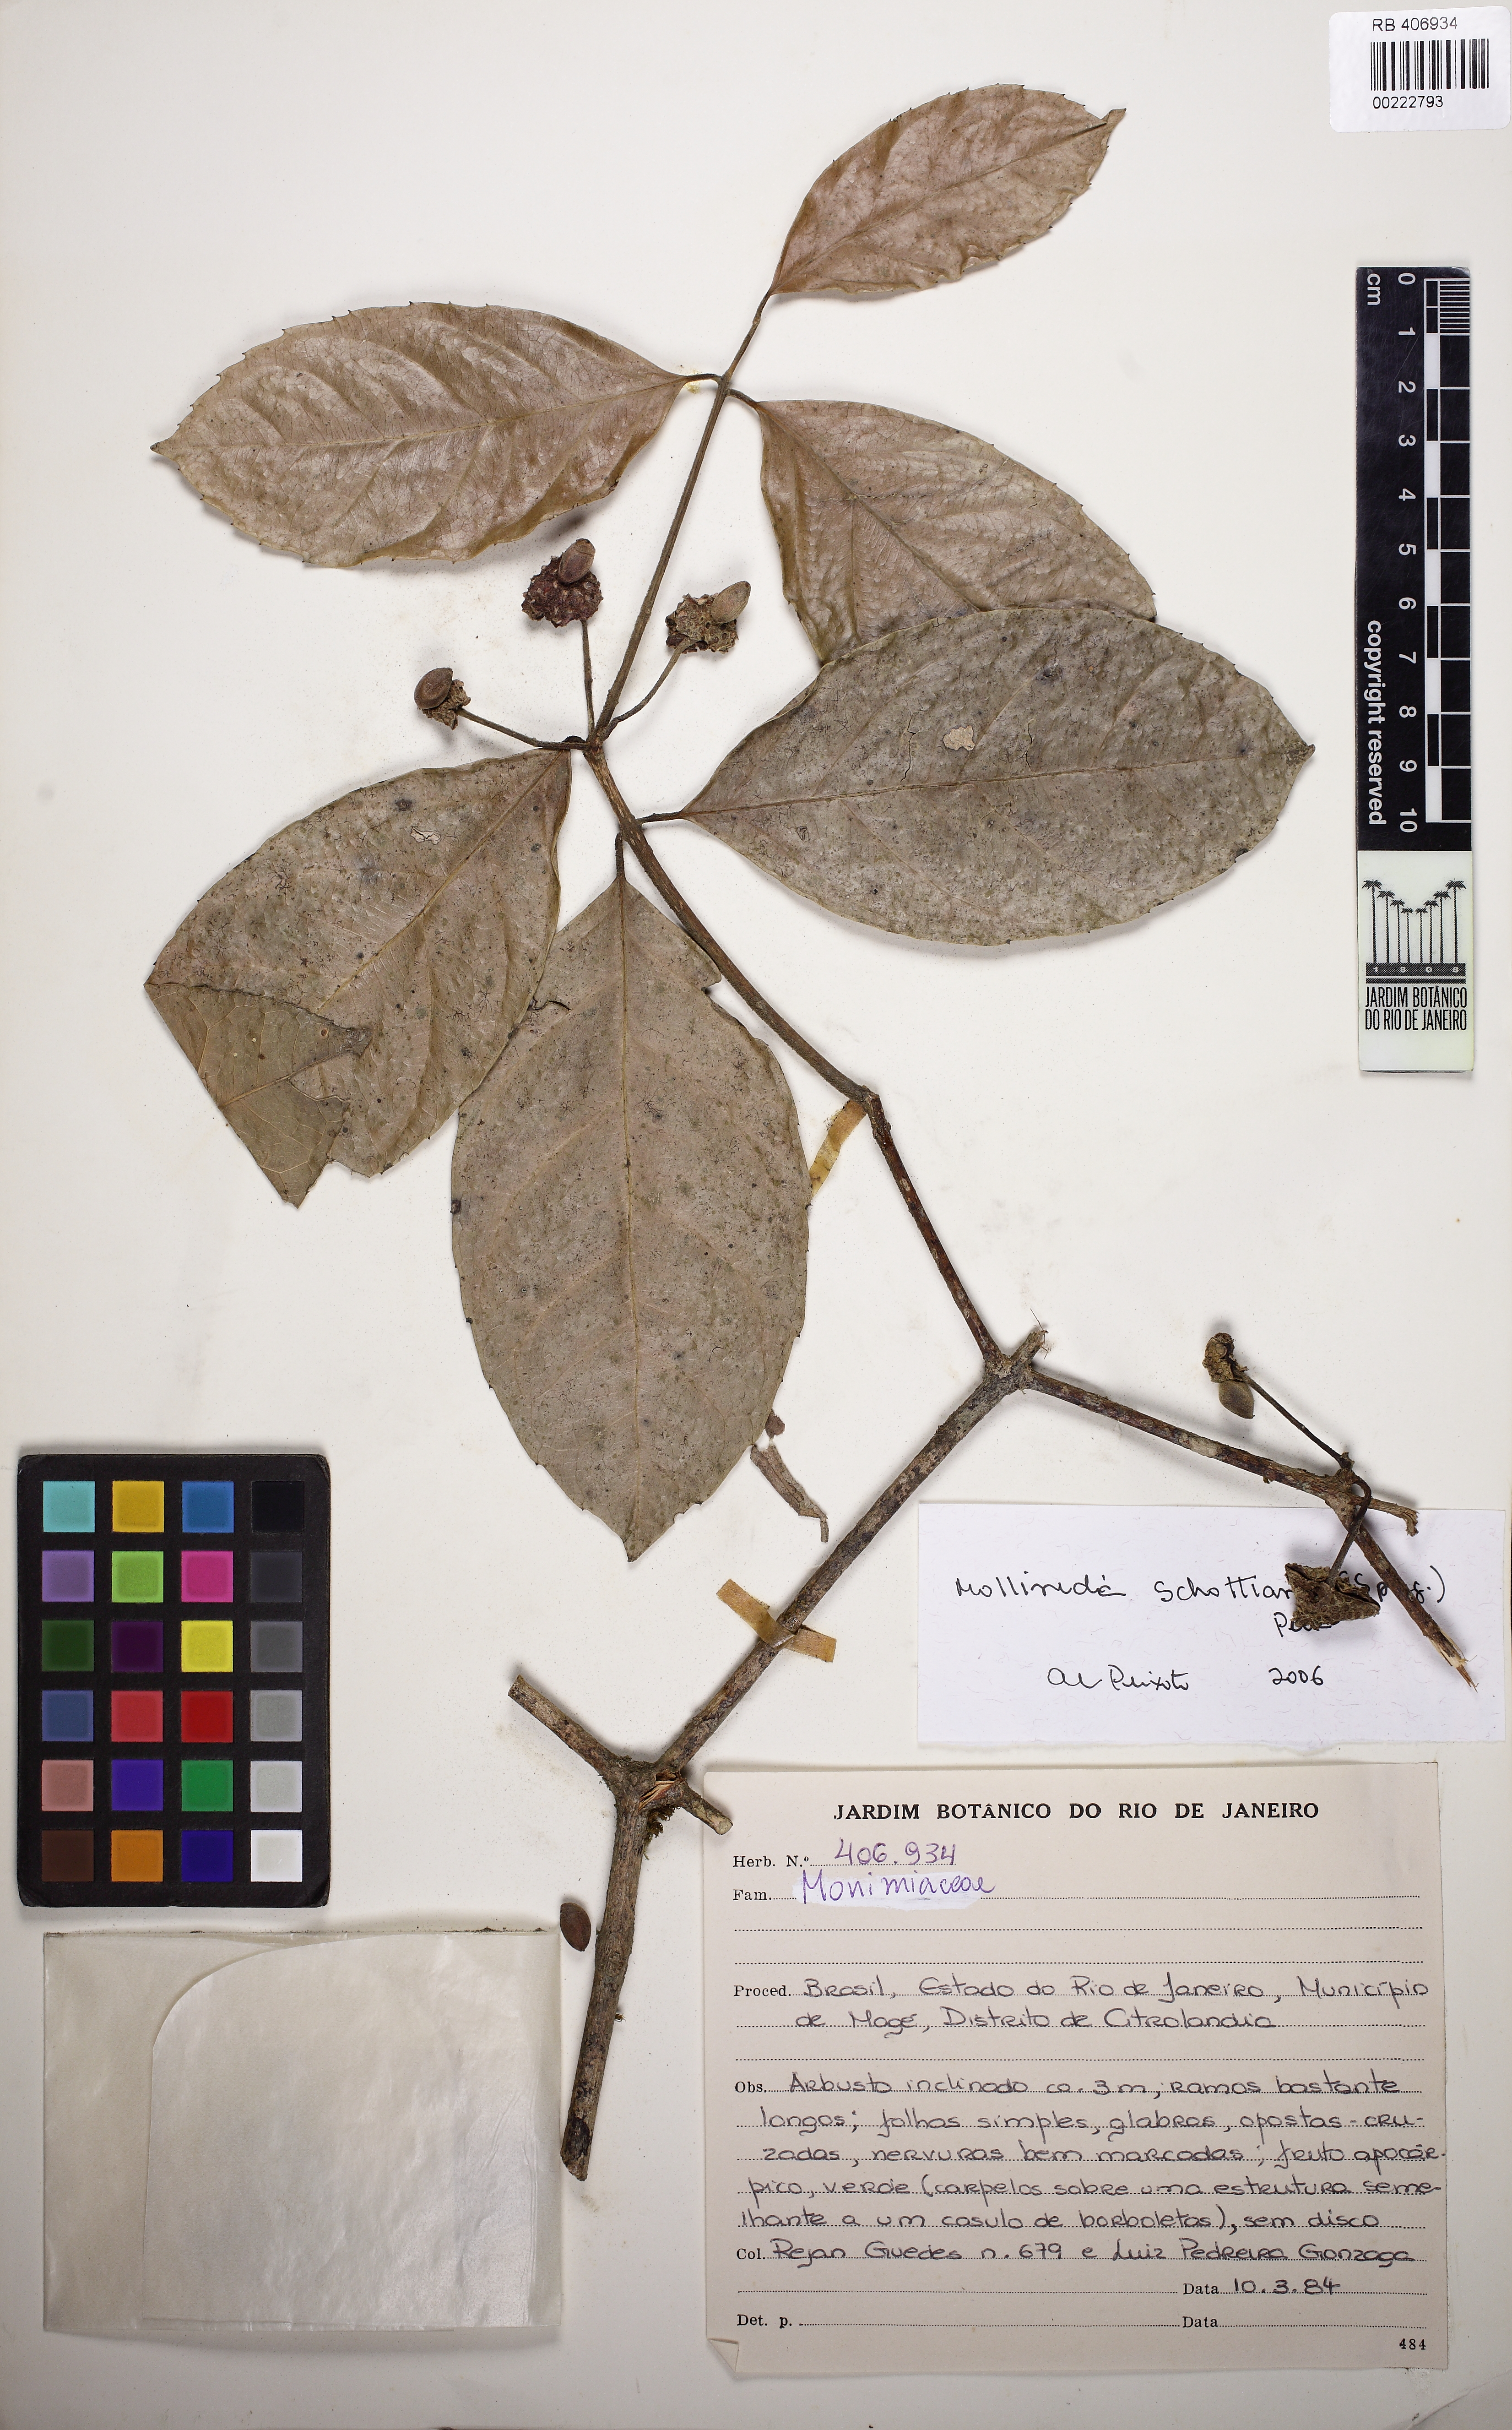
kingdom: Plantae
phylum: Tracheophyta
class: Magnoliopsida
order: Laurales
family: Monimiaceae
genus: Mollinedia
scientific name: Mollinedia umbellata
